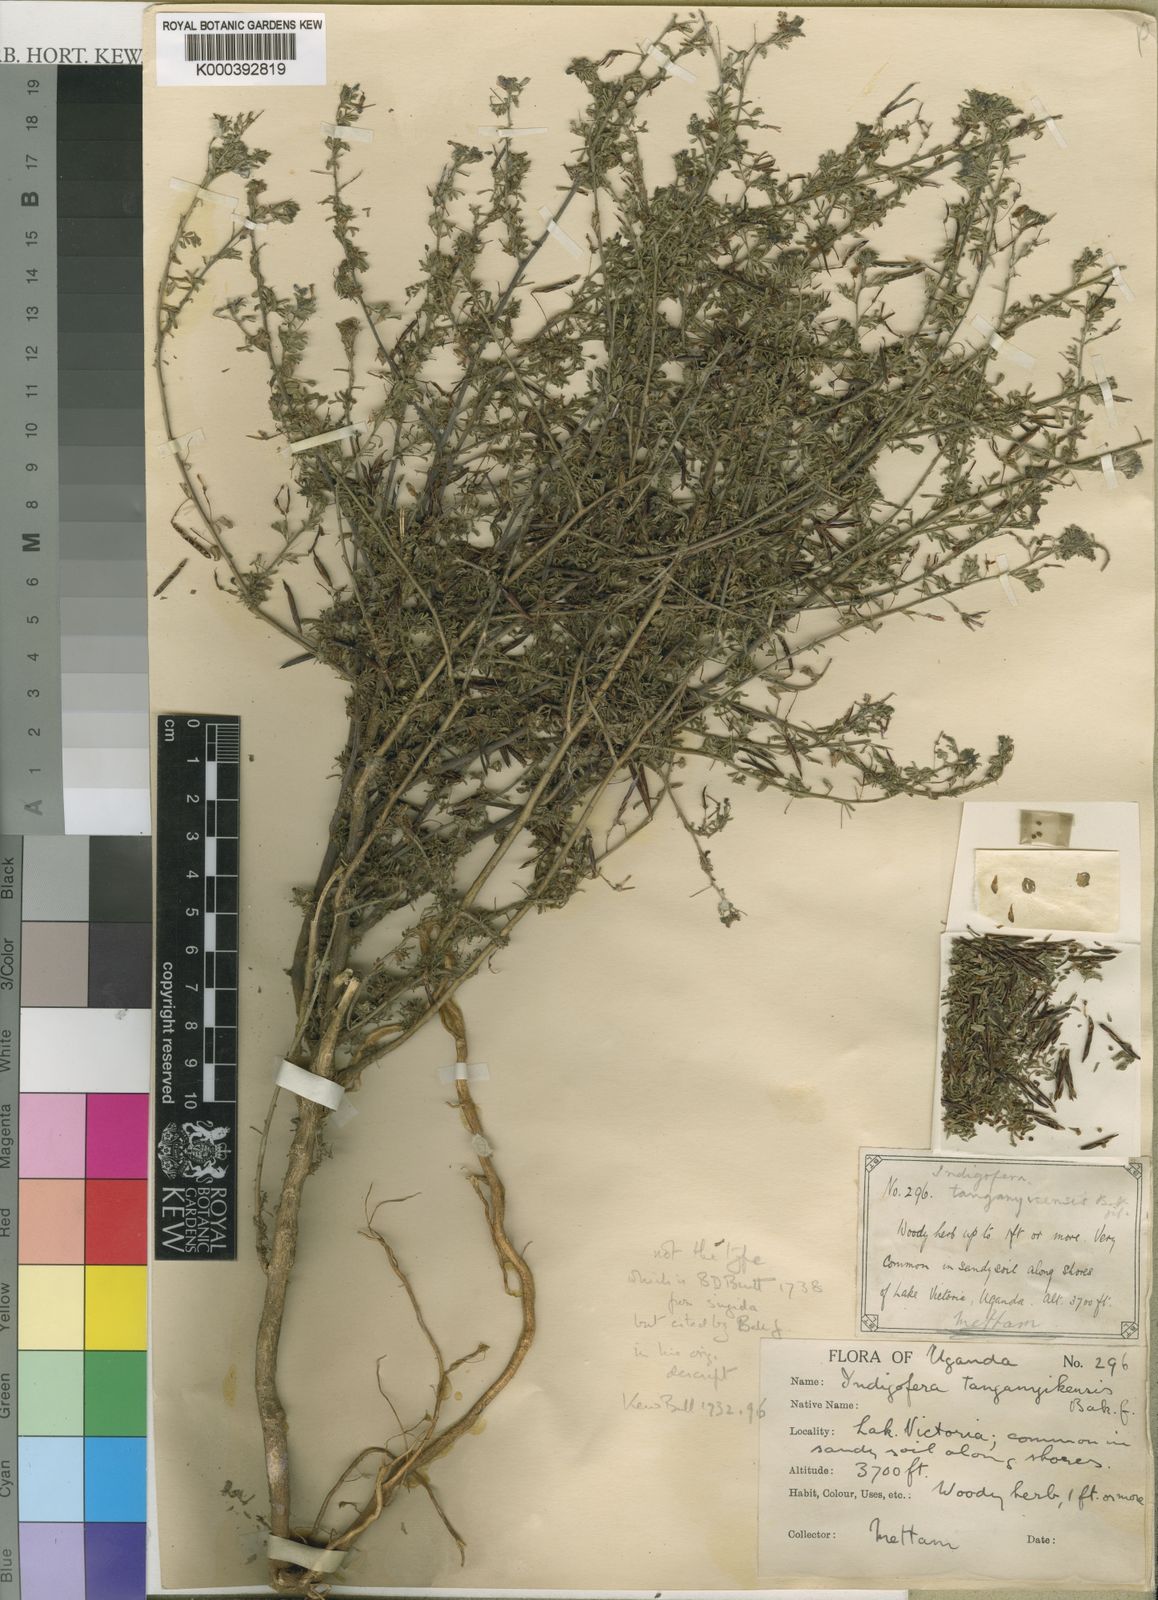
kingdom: Plantae
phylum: Tracheophyta
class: Magnoliopsida
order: Fabales
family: Fabaceae
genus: Indigofera
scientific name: Indigofera tanganyikensis
